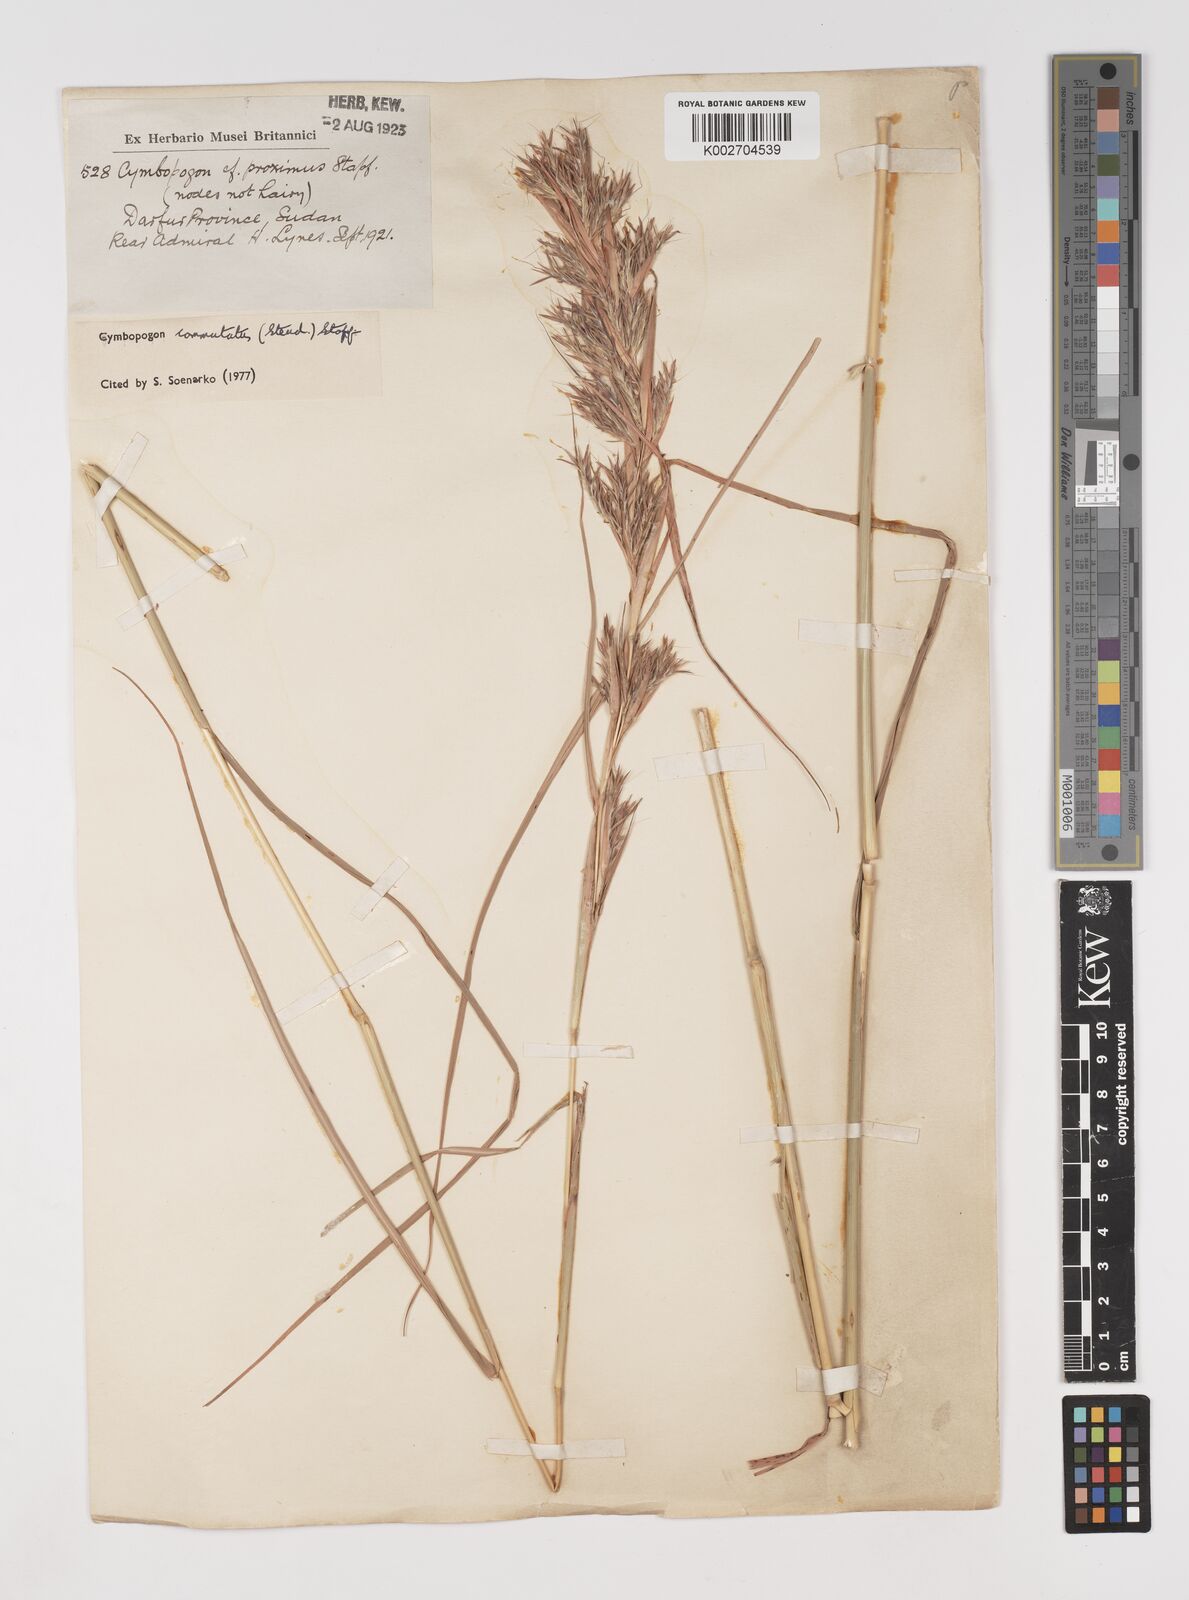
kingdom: Plantae
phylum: Tracheophyta
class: Liliopsida
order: Poales
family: Poaceae
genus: Cymbopogon
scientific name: Cymbopogon commutatus
